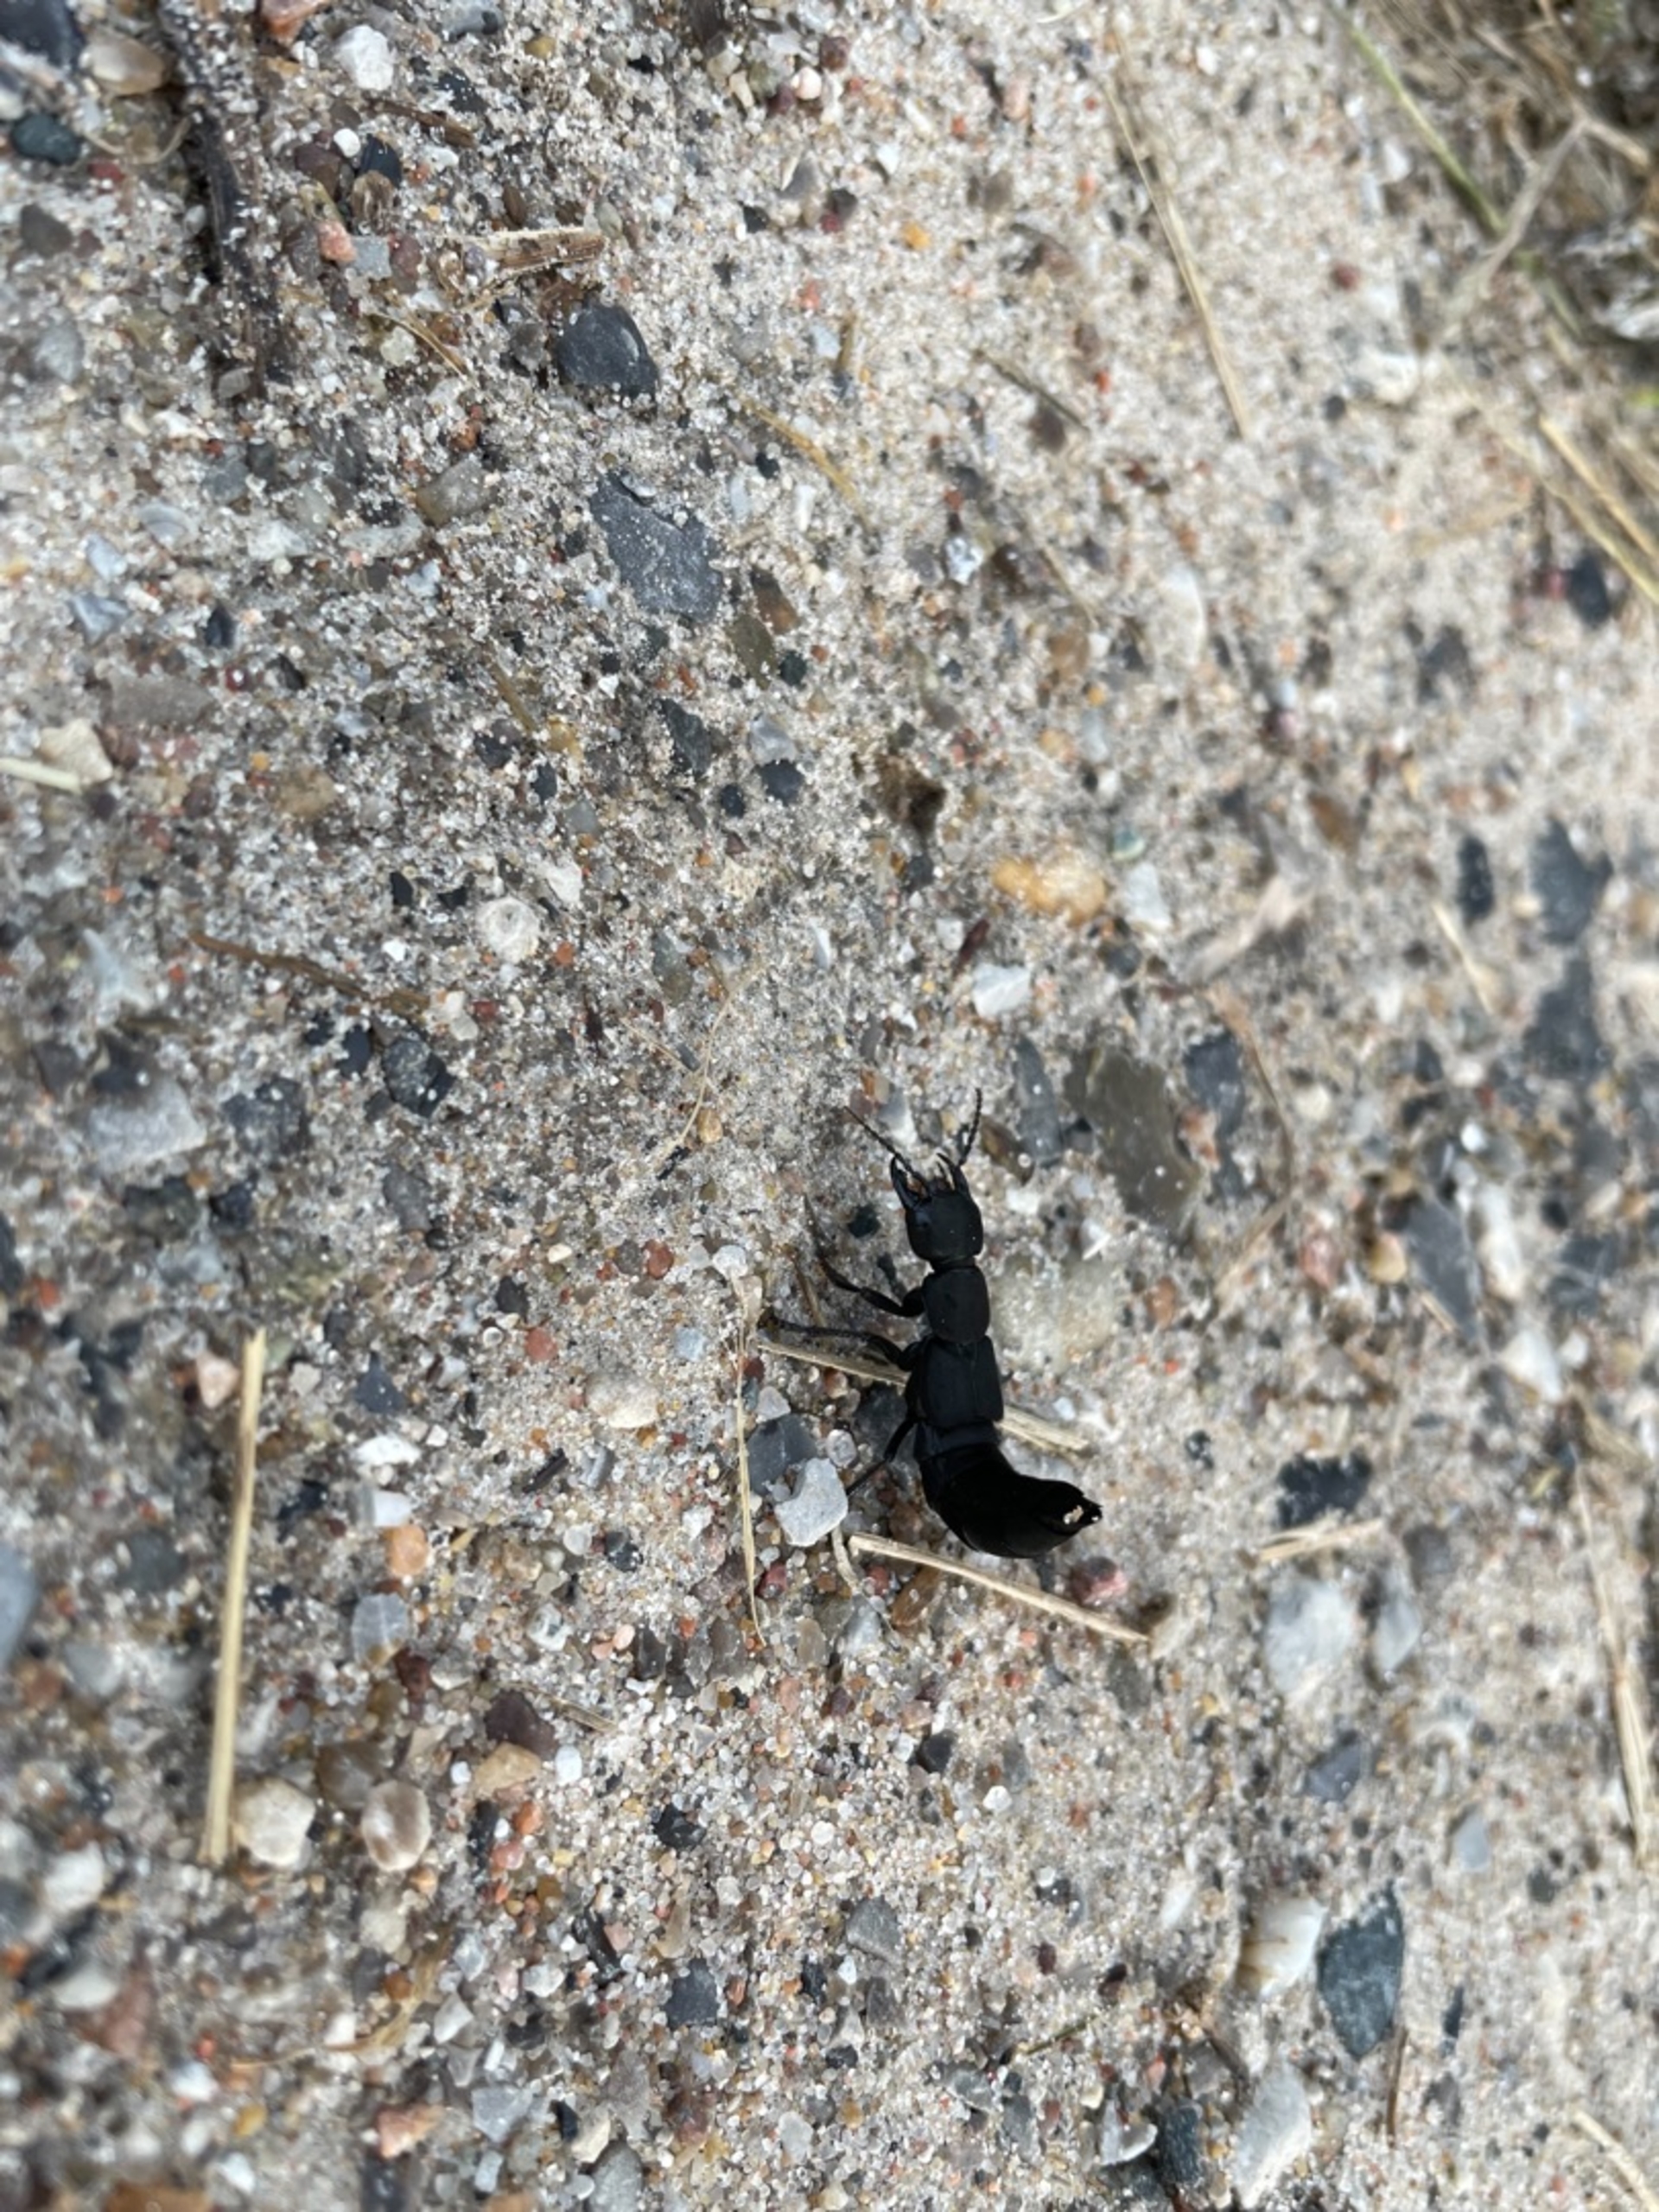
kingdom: Animalia
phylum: Arthropoda
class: Insecta
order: Coleoptera
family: Staphylinidae
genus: Ocypus
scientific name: Ocypus olens
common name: Stor rovbille
